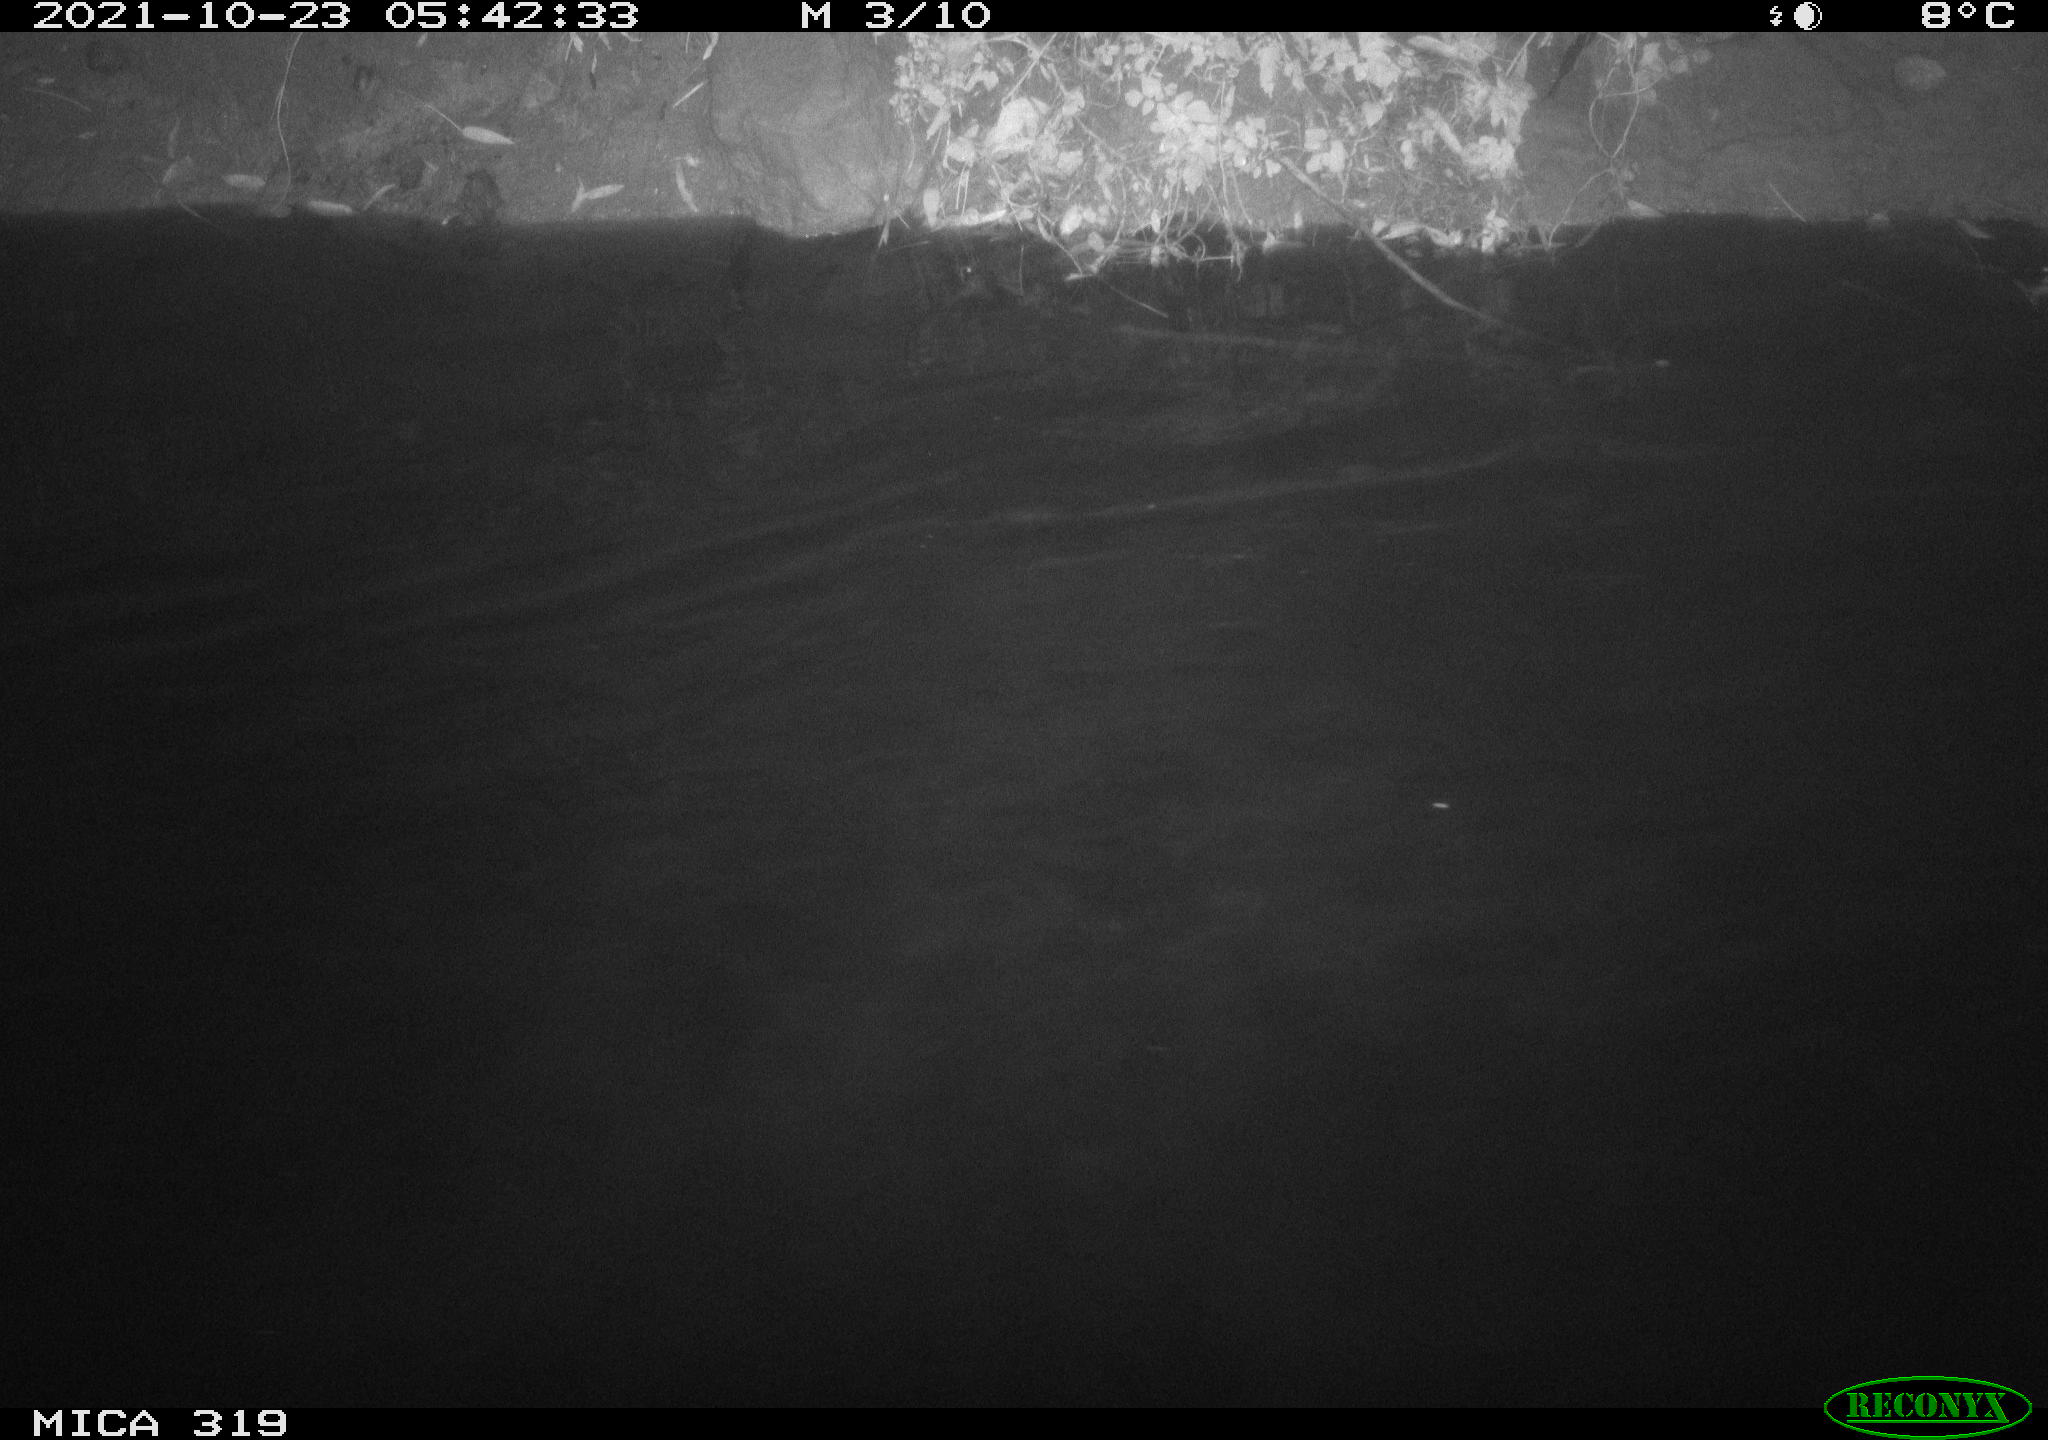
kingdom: Animalia
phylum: Chordata
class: Aves
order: Anseriformes
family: Anatidae
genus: Anas
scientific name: Anas platyrhynchos
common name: Mallard
